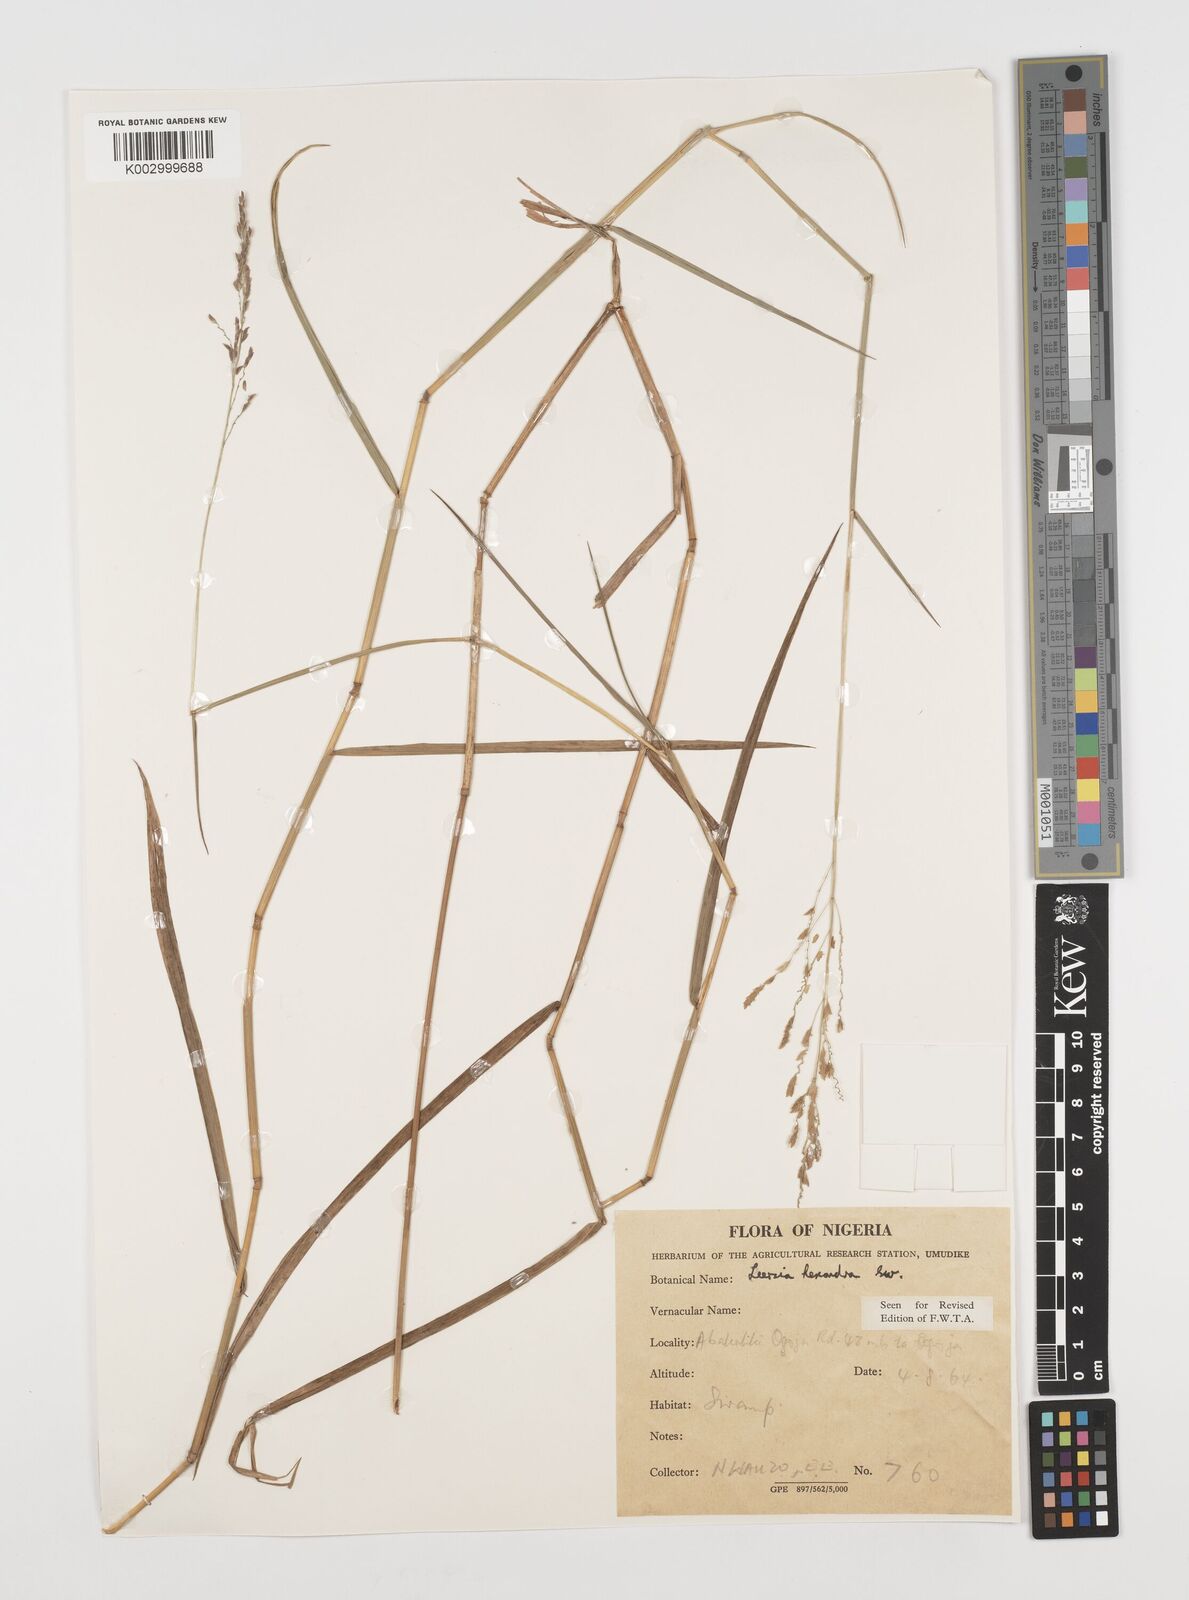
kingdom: Plantae
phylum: Tracheophyta
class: Liliopsida
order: Poales
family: Poaceae
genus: Leersia
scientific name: Leersia hexandra
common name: Southern cut grass
